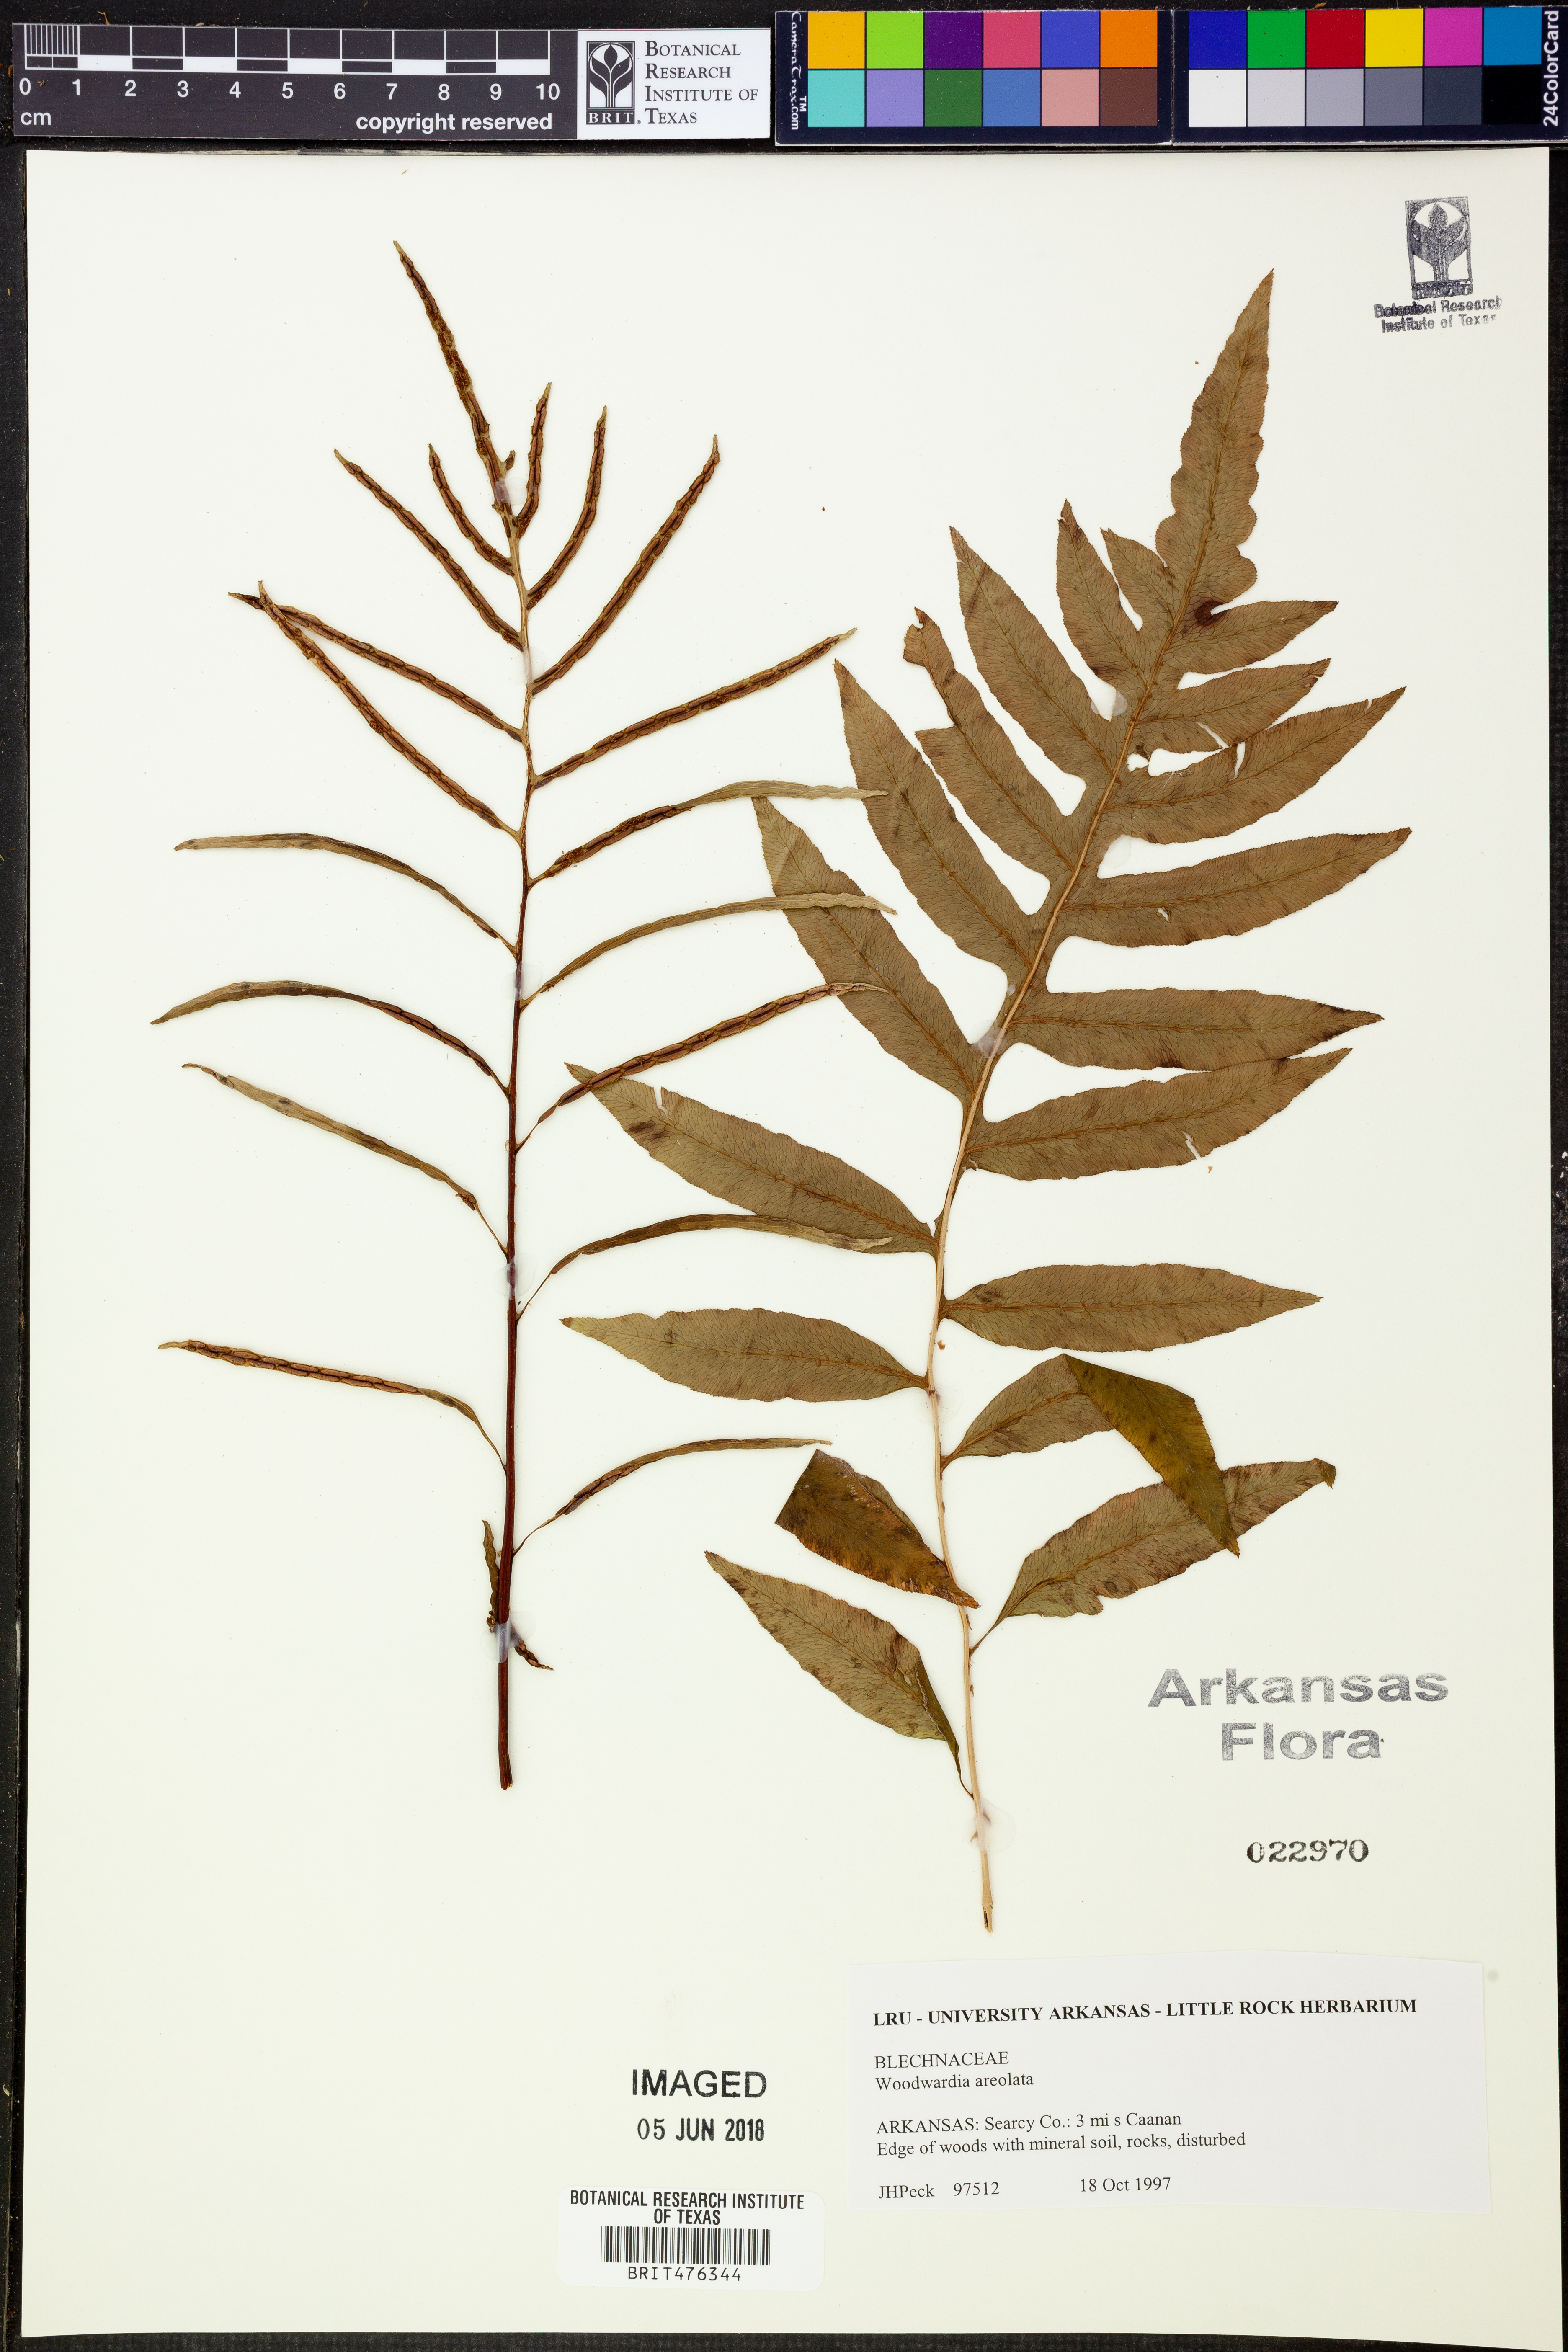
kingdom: Plantae
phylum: Tracheophyta
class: Polypodiopsida
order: Polypodiales
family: Blechnaceae
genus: Lorinseria
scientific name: Lorinseria areolata
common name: Dwarf chain fern
